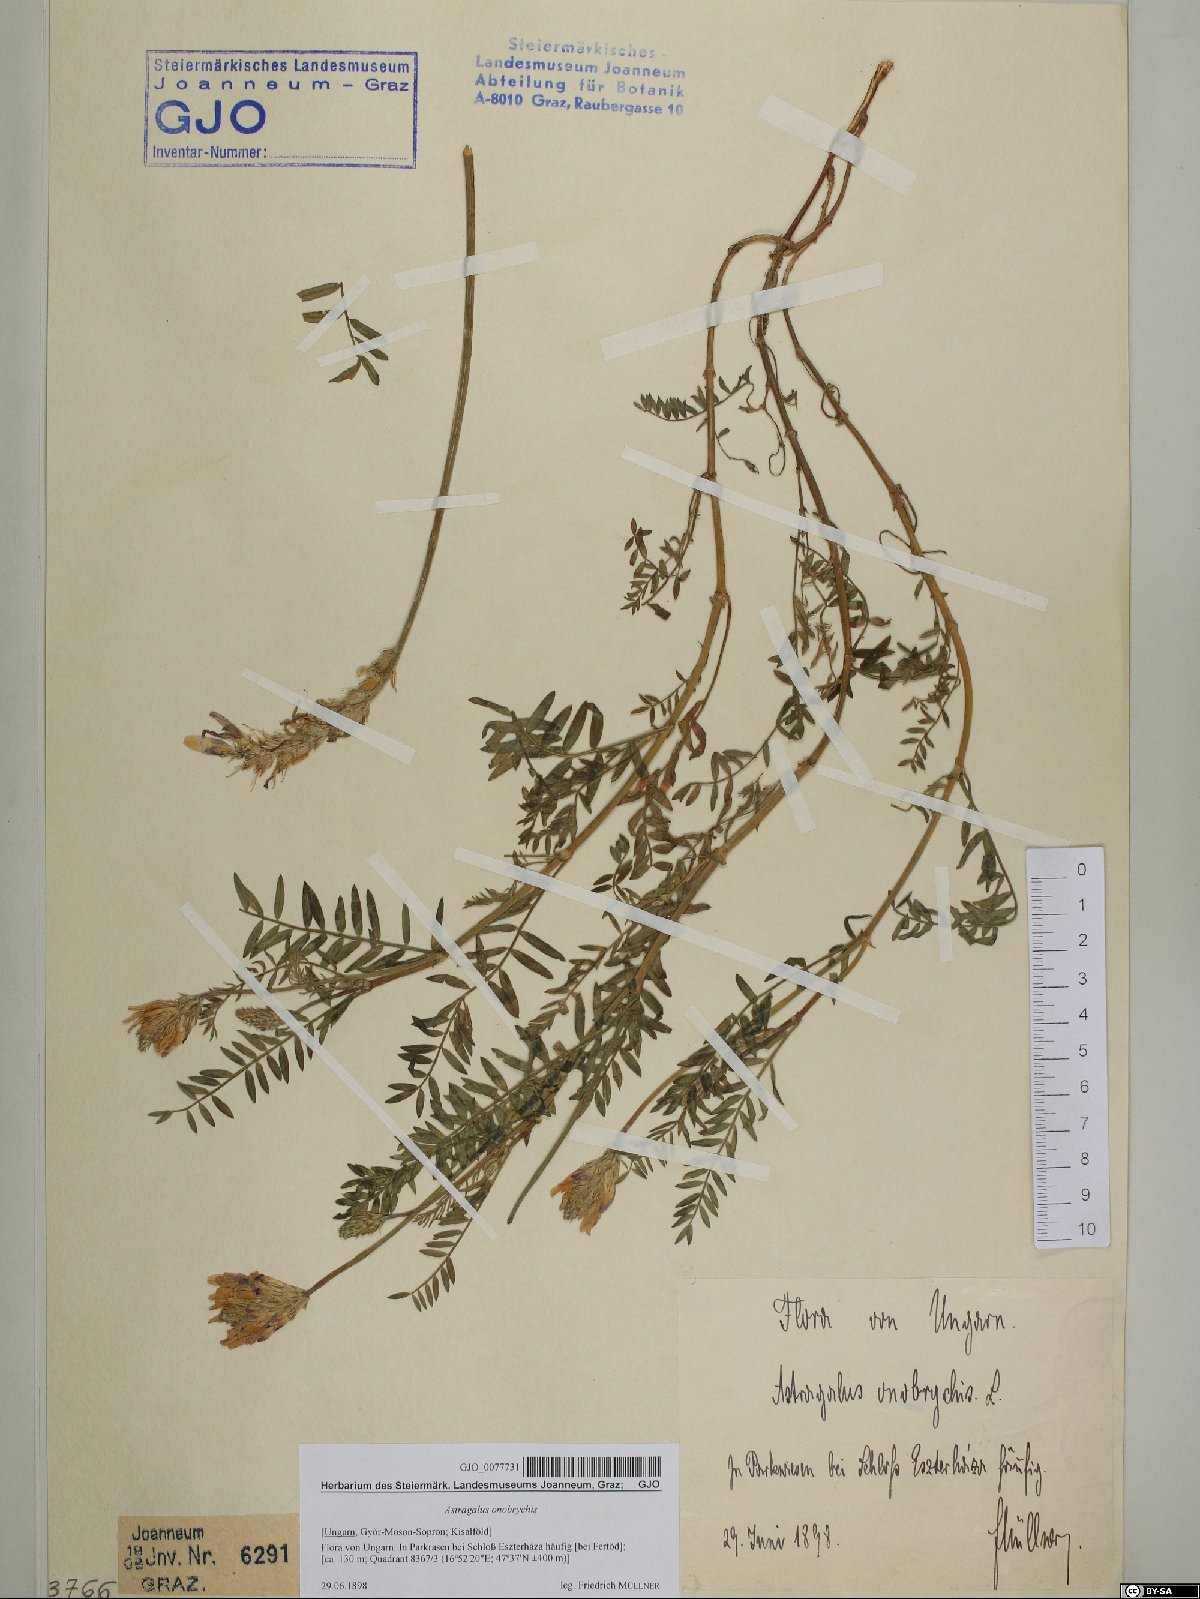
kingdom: Plantae
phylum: Tracheophyta
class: Magnoliopsida
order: Fabales
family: Fabaceae
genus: Astragalus
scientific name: Astragalus onobrychis
